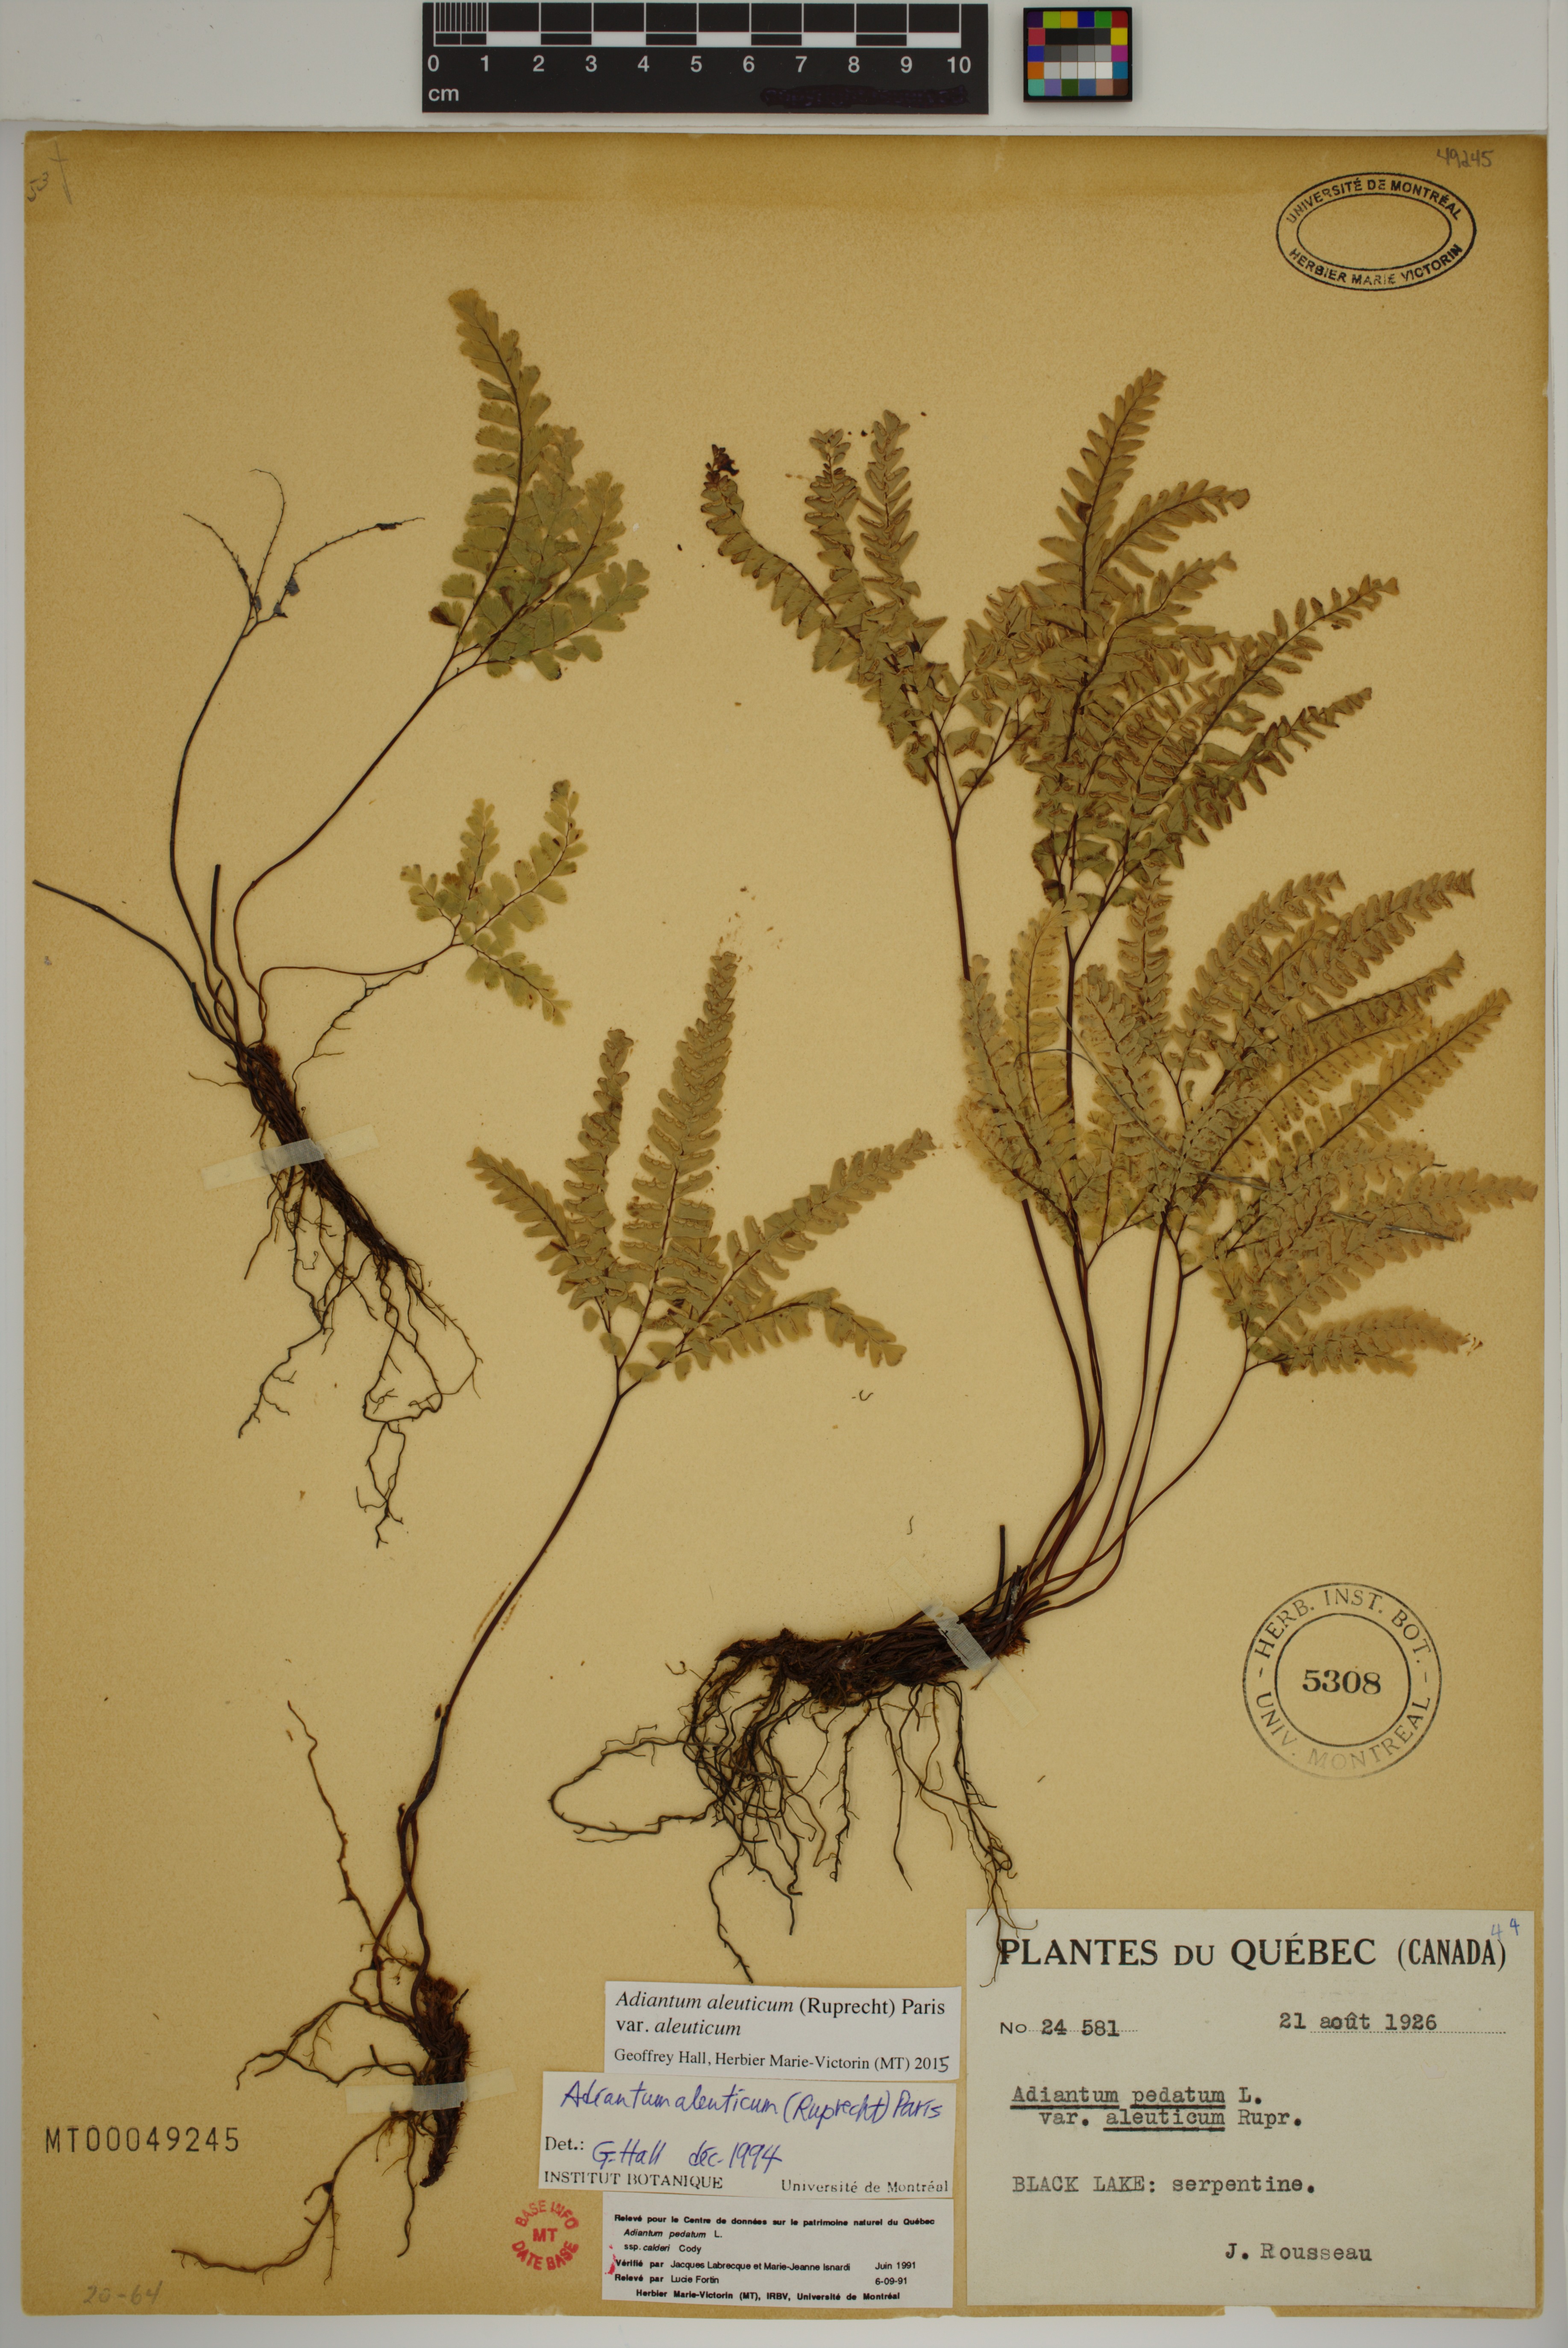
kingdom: Plantae
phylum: Tracheophyta
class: Polypodiopsida
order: Polypodiales
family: Pteridaceae
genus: Adiantum
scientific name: Adiantum aleuticum
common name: Aleutian maidenhair fern
